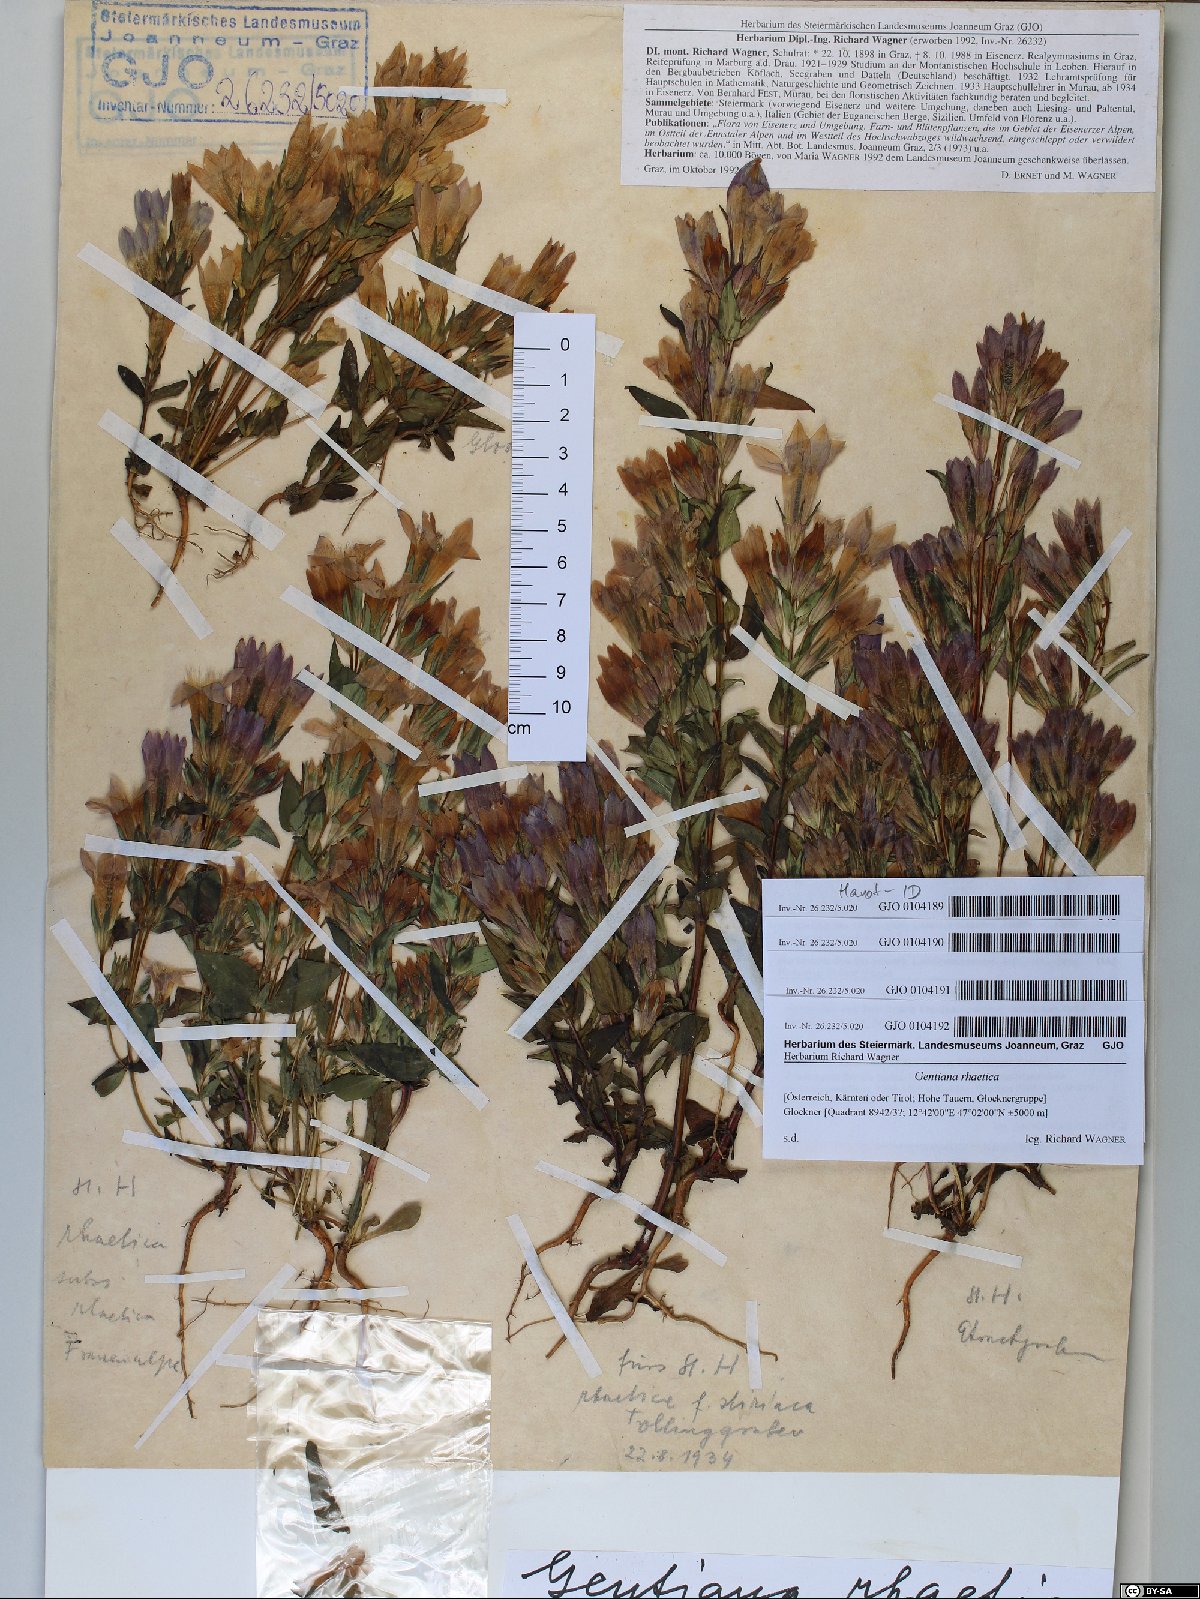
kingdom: Plantae
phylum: Tracheophyta
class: Magnoliopsida
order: Gentianales
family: Gentianaceae
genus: Gentianella
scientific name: Gentianella rhaetica
